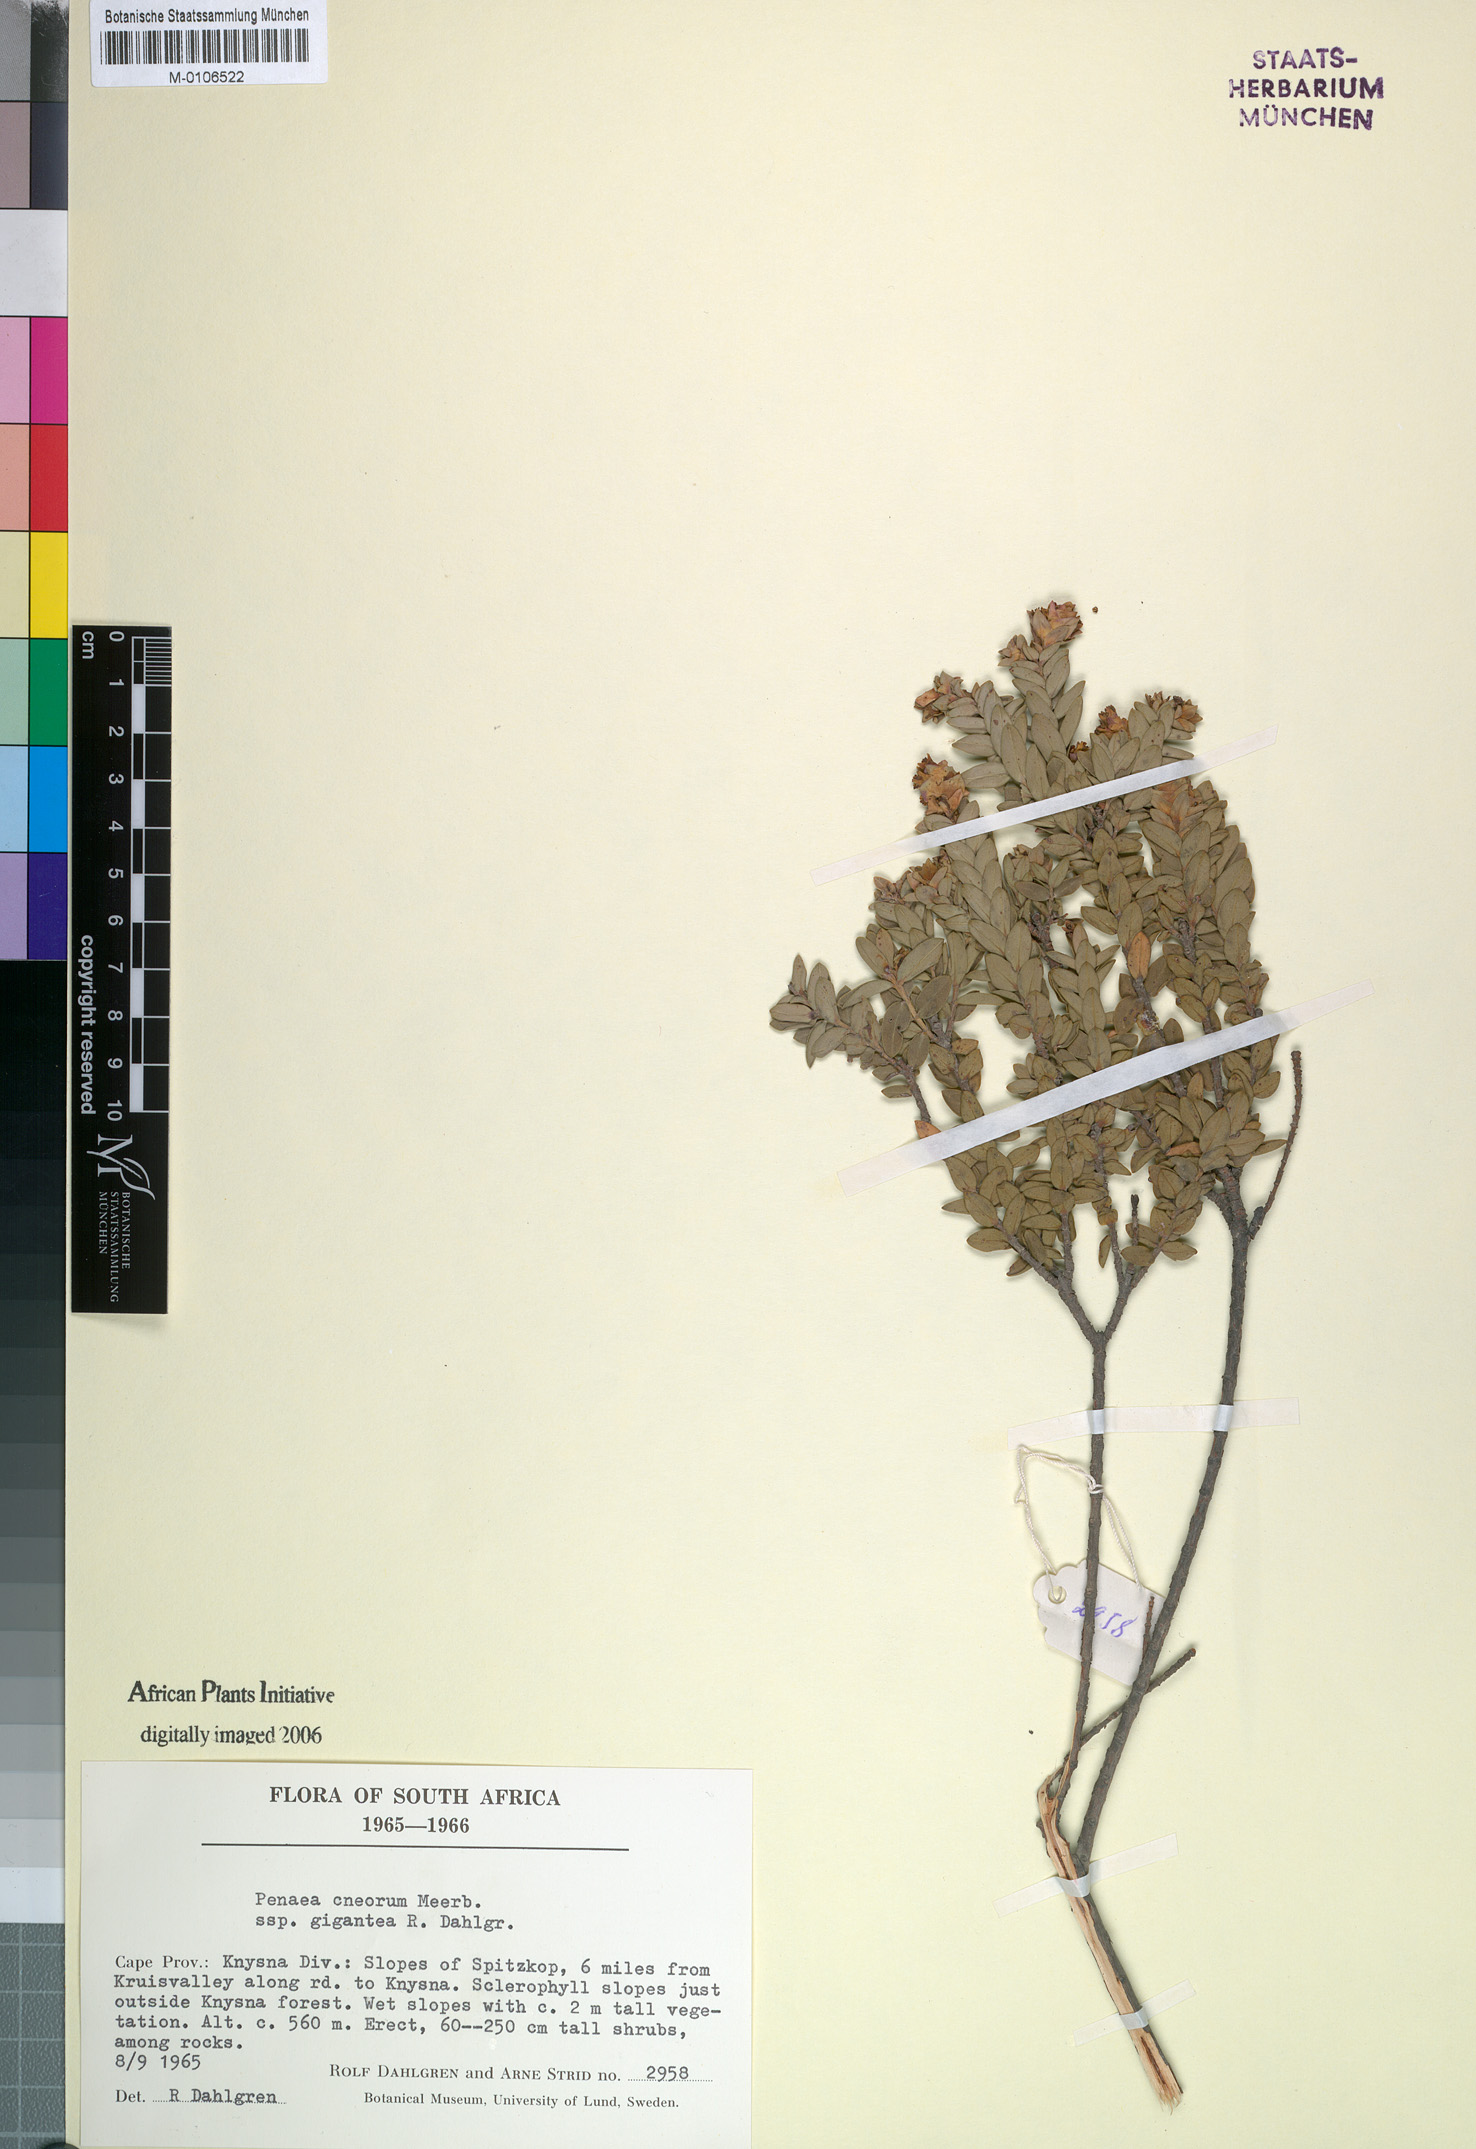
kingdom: Plantae
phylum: Tracheophyta
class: Magnoliopsida
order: Myrtales
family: Penaeaceae
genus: Penaea
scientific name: Penaea cneorum
